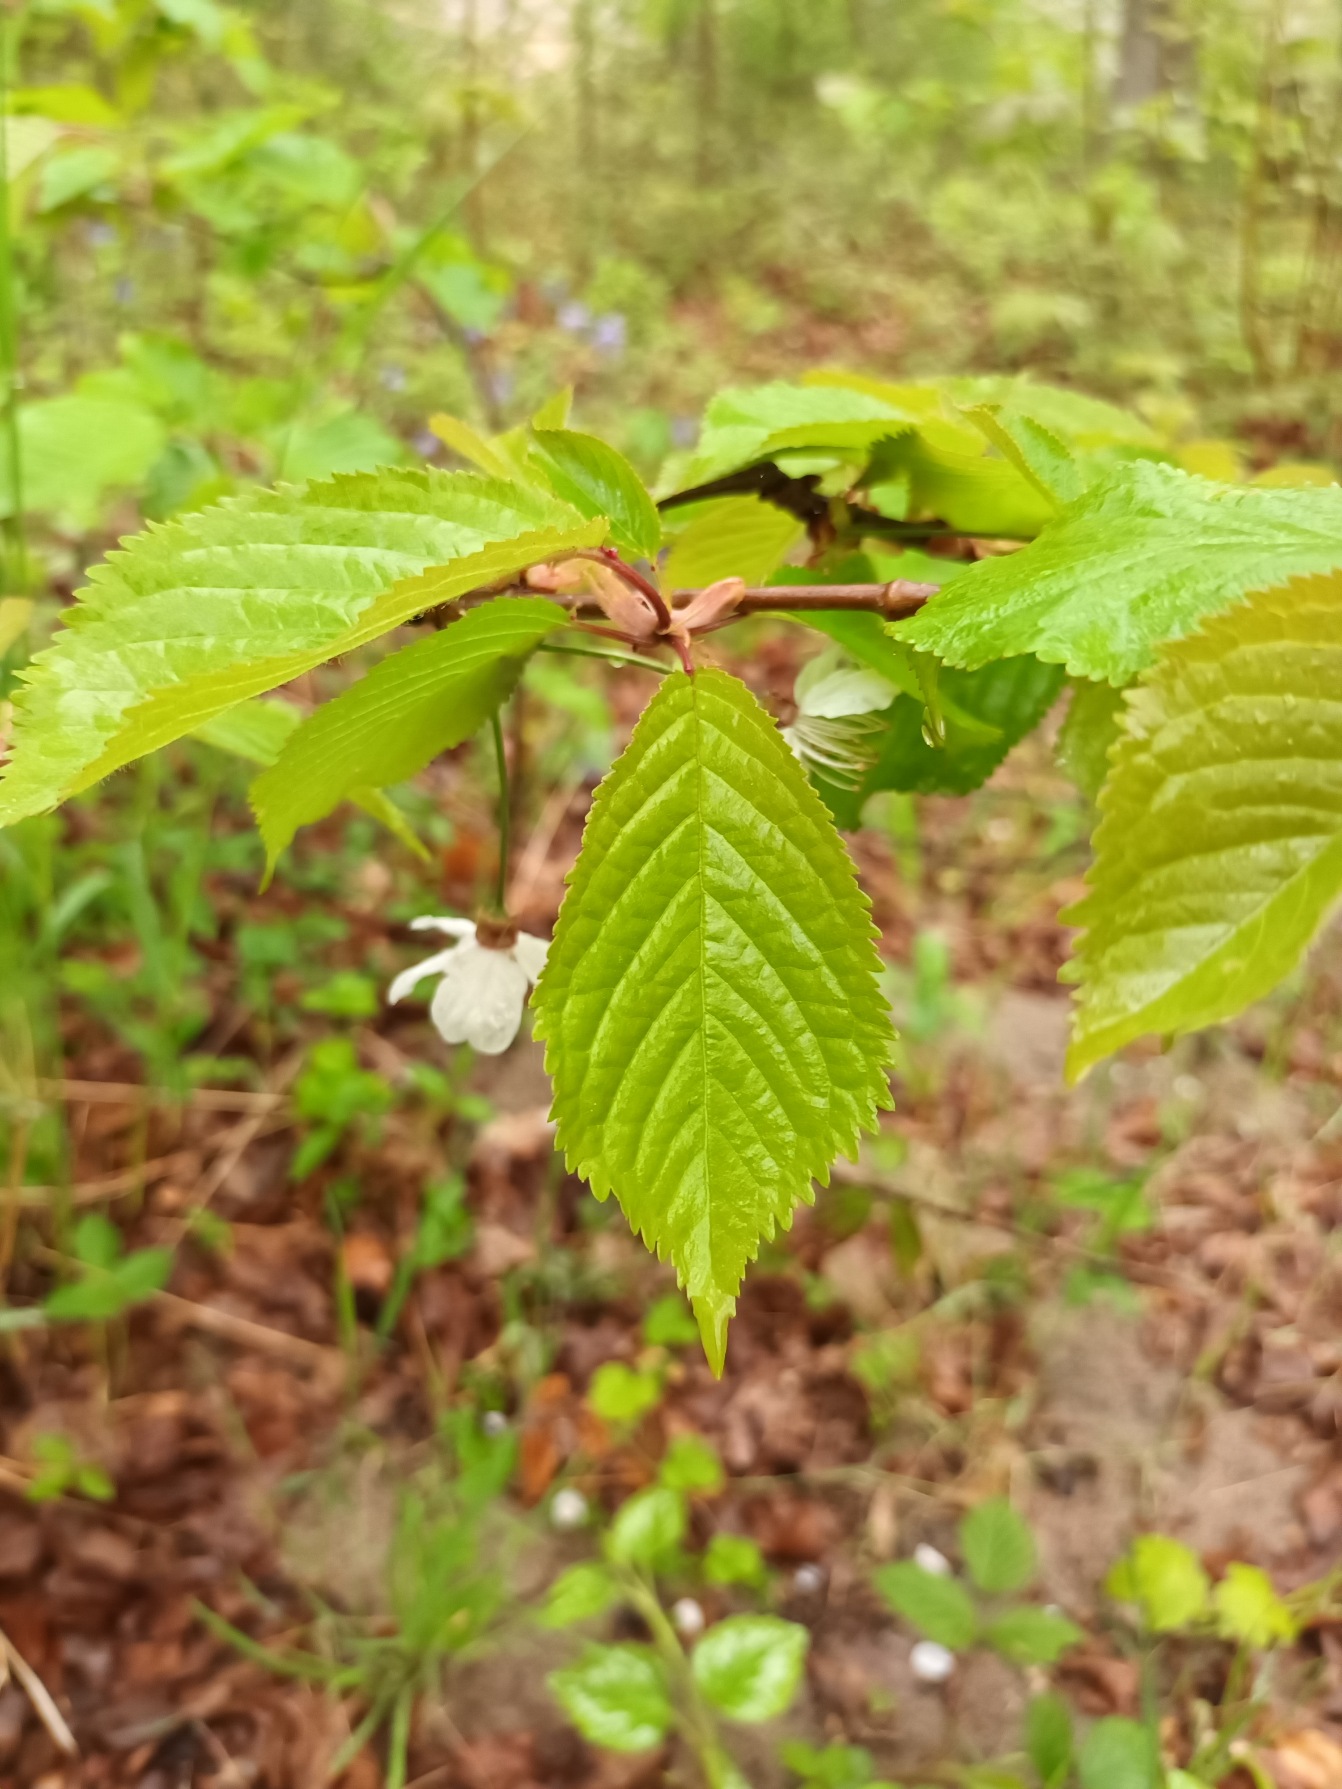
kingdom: Plantae
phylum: Tracheophyta
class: Magnoliopsida
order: Rosales
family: Rosaceae
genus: Prunus
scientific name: Prunus avium
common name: Fugle-kirsebær
